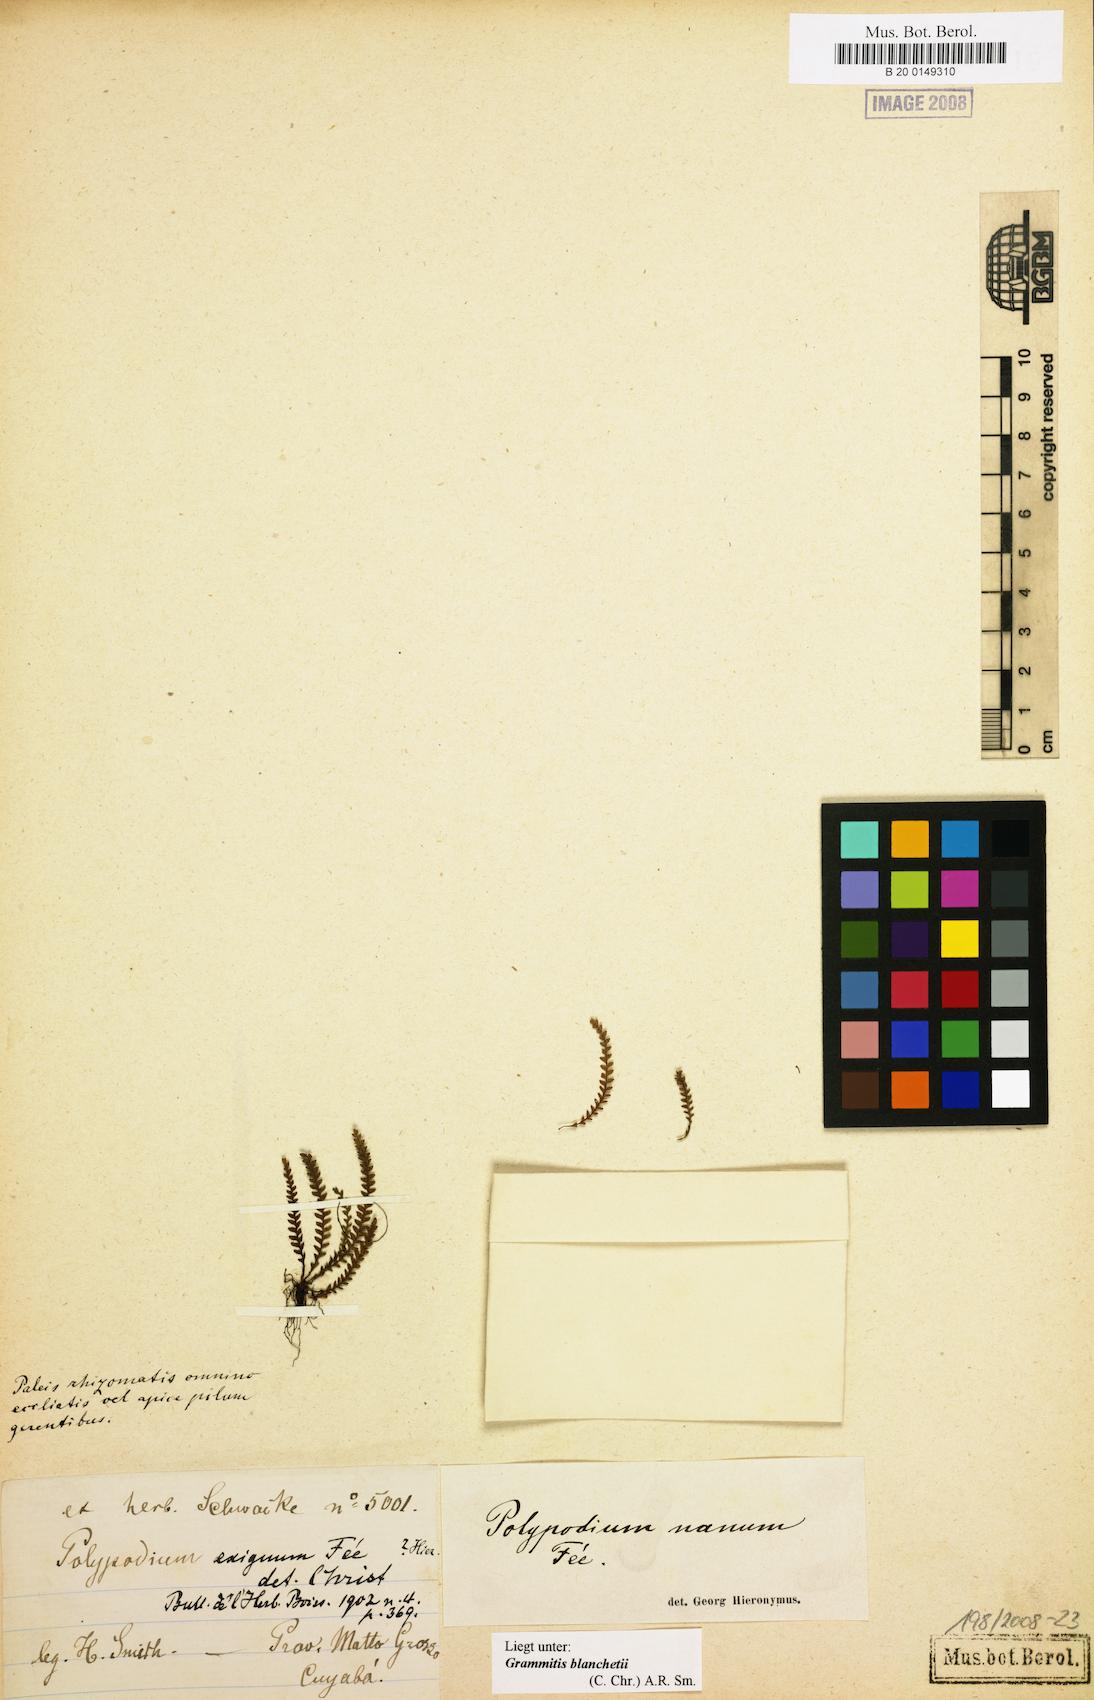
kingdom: Plantae
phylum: Tracheophyta
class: Polypodiopsida
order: Polypodiales
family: Polypodiaceae
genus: Moranopteris
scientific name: Moranopteris nana
